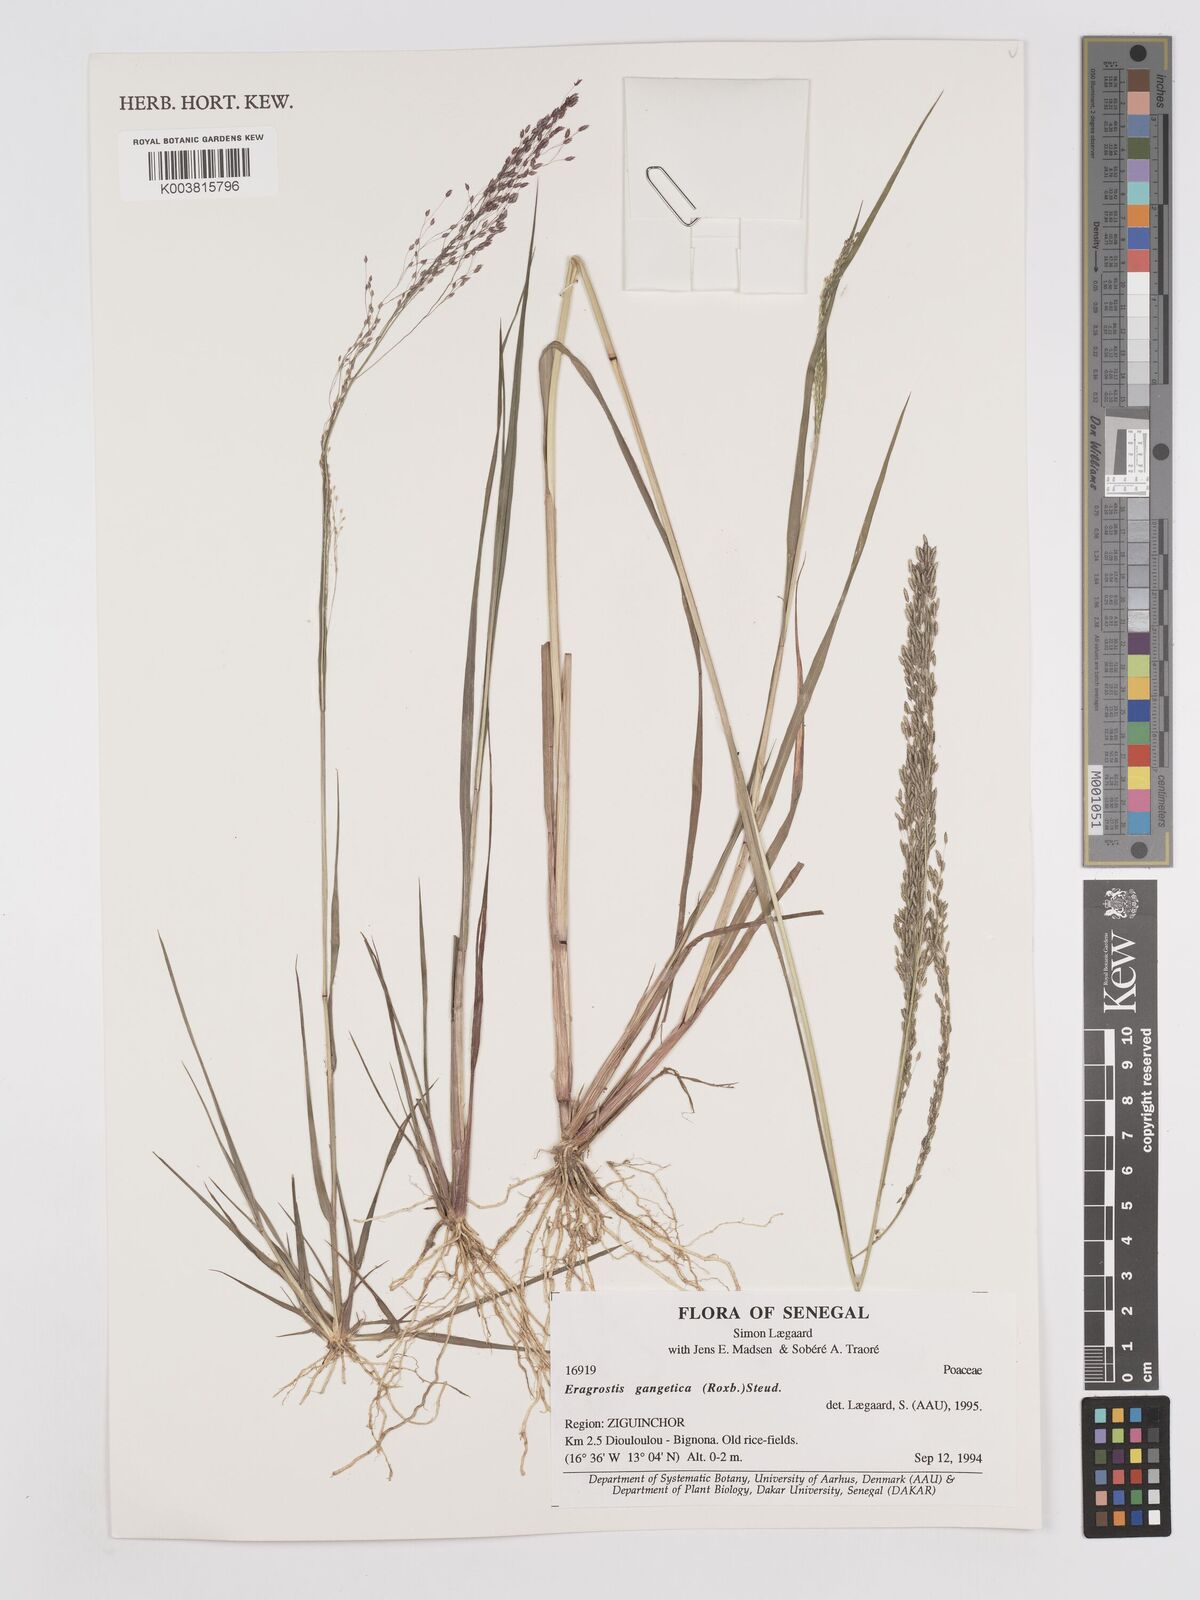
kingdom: Plantae
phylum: Tracheophyta
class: Liliopsida
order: Poales
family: Poaceae
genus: Eragrostis
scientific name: Eragrostis gangetica
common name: Slimflower lovegrass
